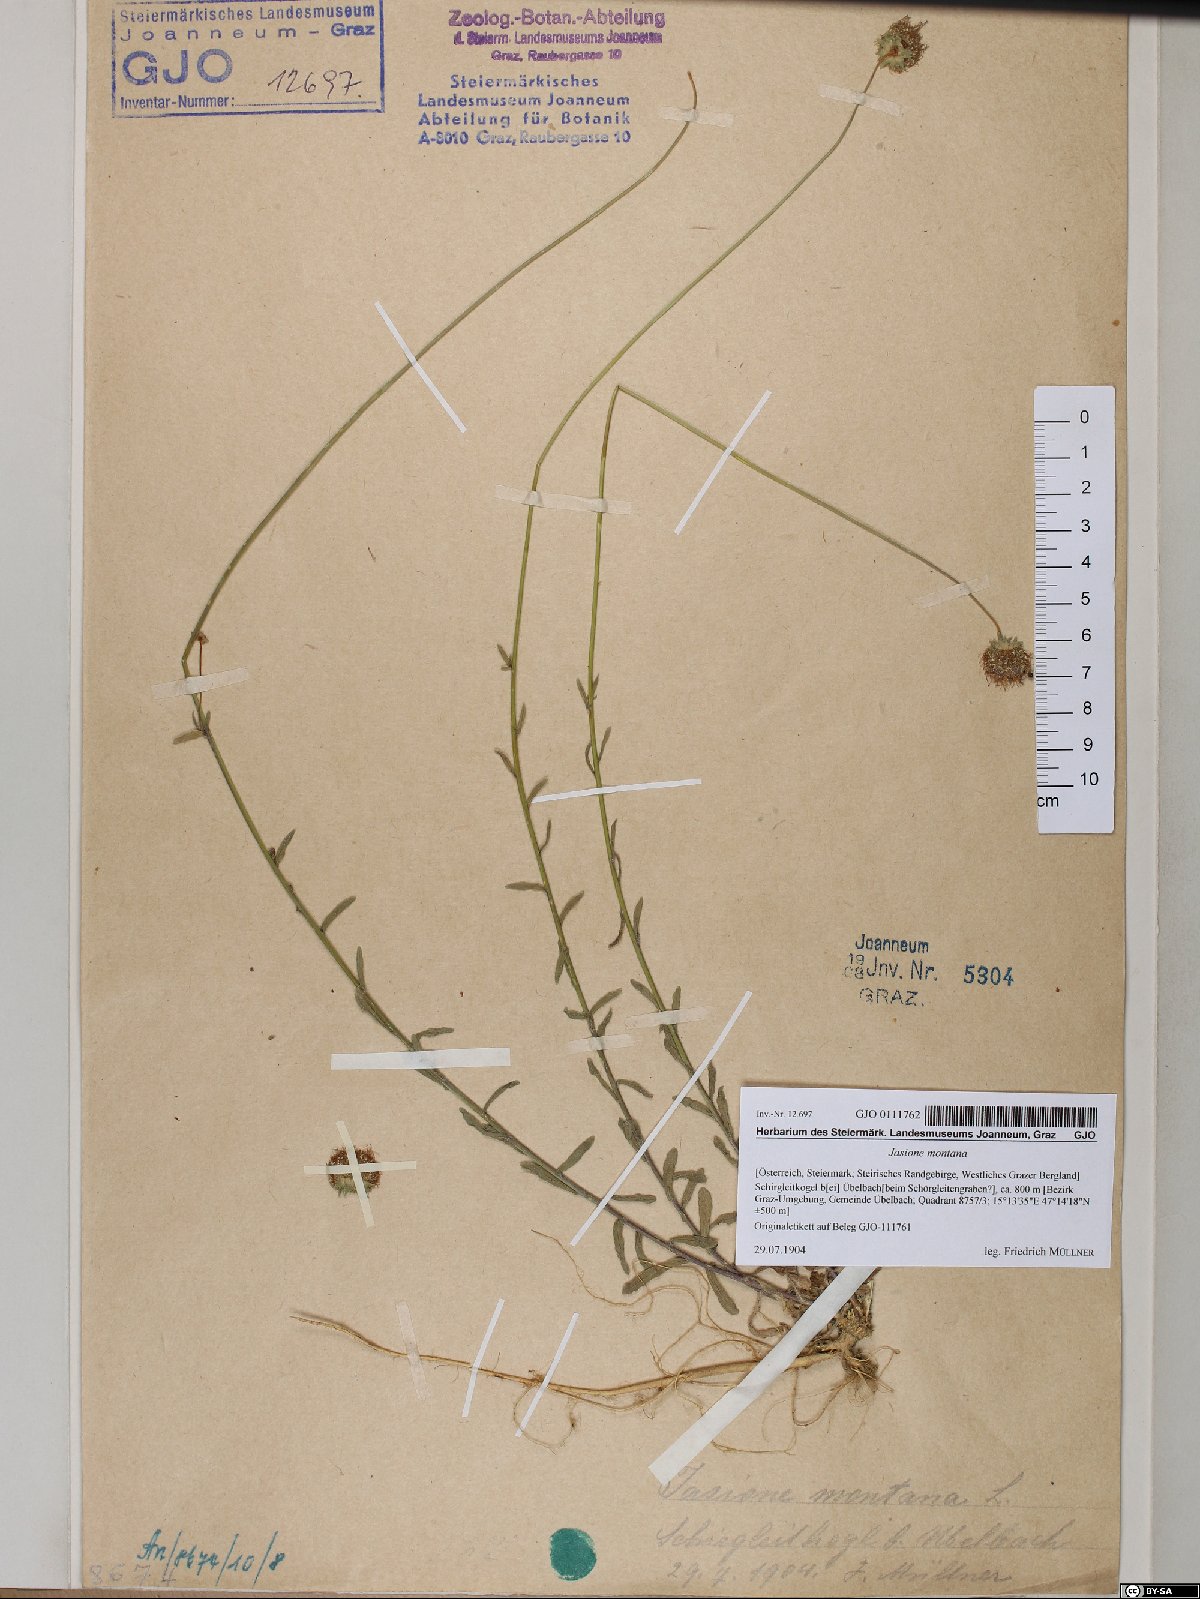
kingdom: Plantae
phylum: Tracheophyta
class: Magnoliopsida
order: Asterales
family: Campanulaceae
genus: Jasione
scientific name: Jasione montana
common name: Sheep's-bit
